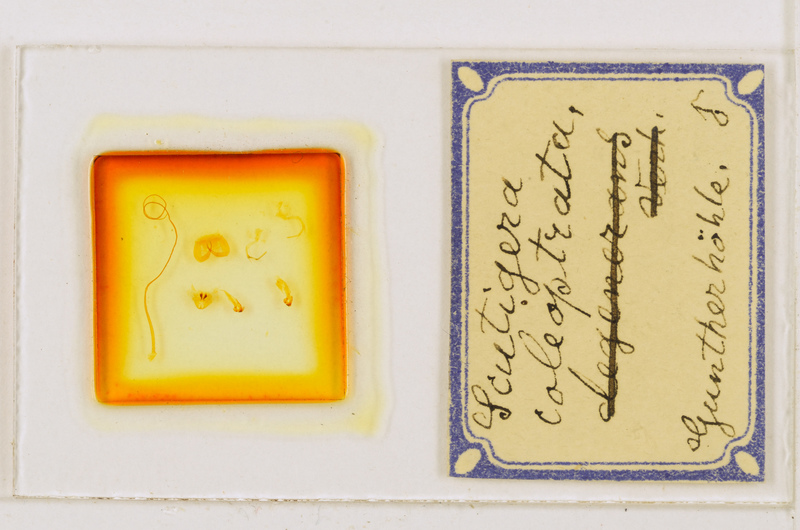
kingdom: Animalia
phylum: Arthropoda
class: Chilopoda
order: Scutigeromorpha
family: Scutigeridae
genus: Scutigera
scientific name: Scutigera coleoptrata
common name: House centipede
